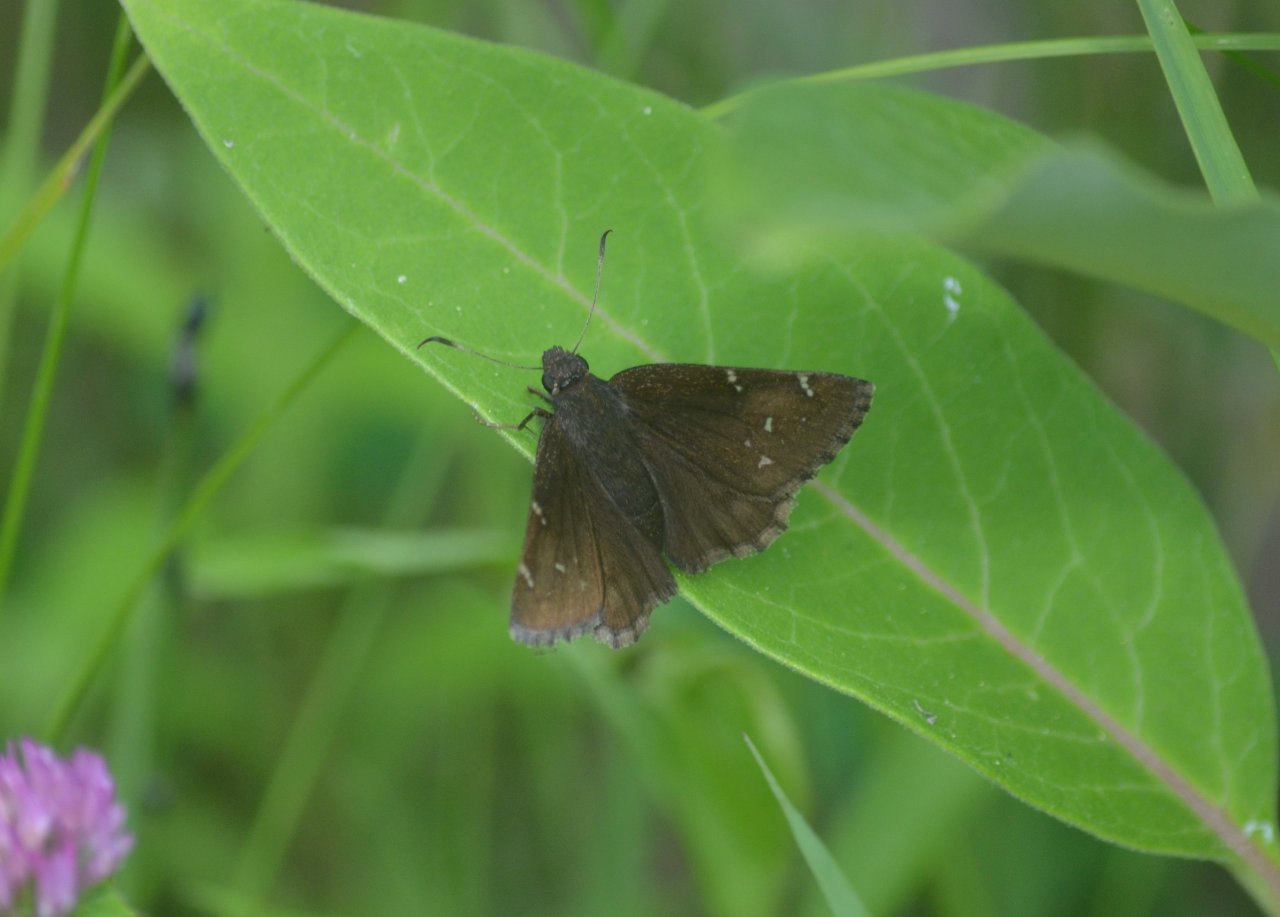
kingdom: Animalia
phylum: Arthropoda
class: Insecta
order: Lepidoptera
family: Hesperiidae
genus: Autochton
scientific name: Autochton
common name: Northern Cloudywing
